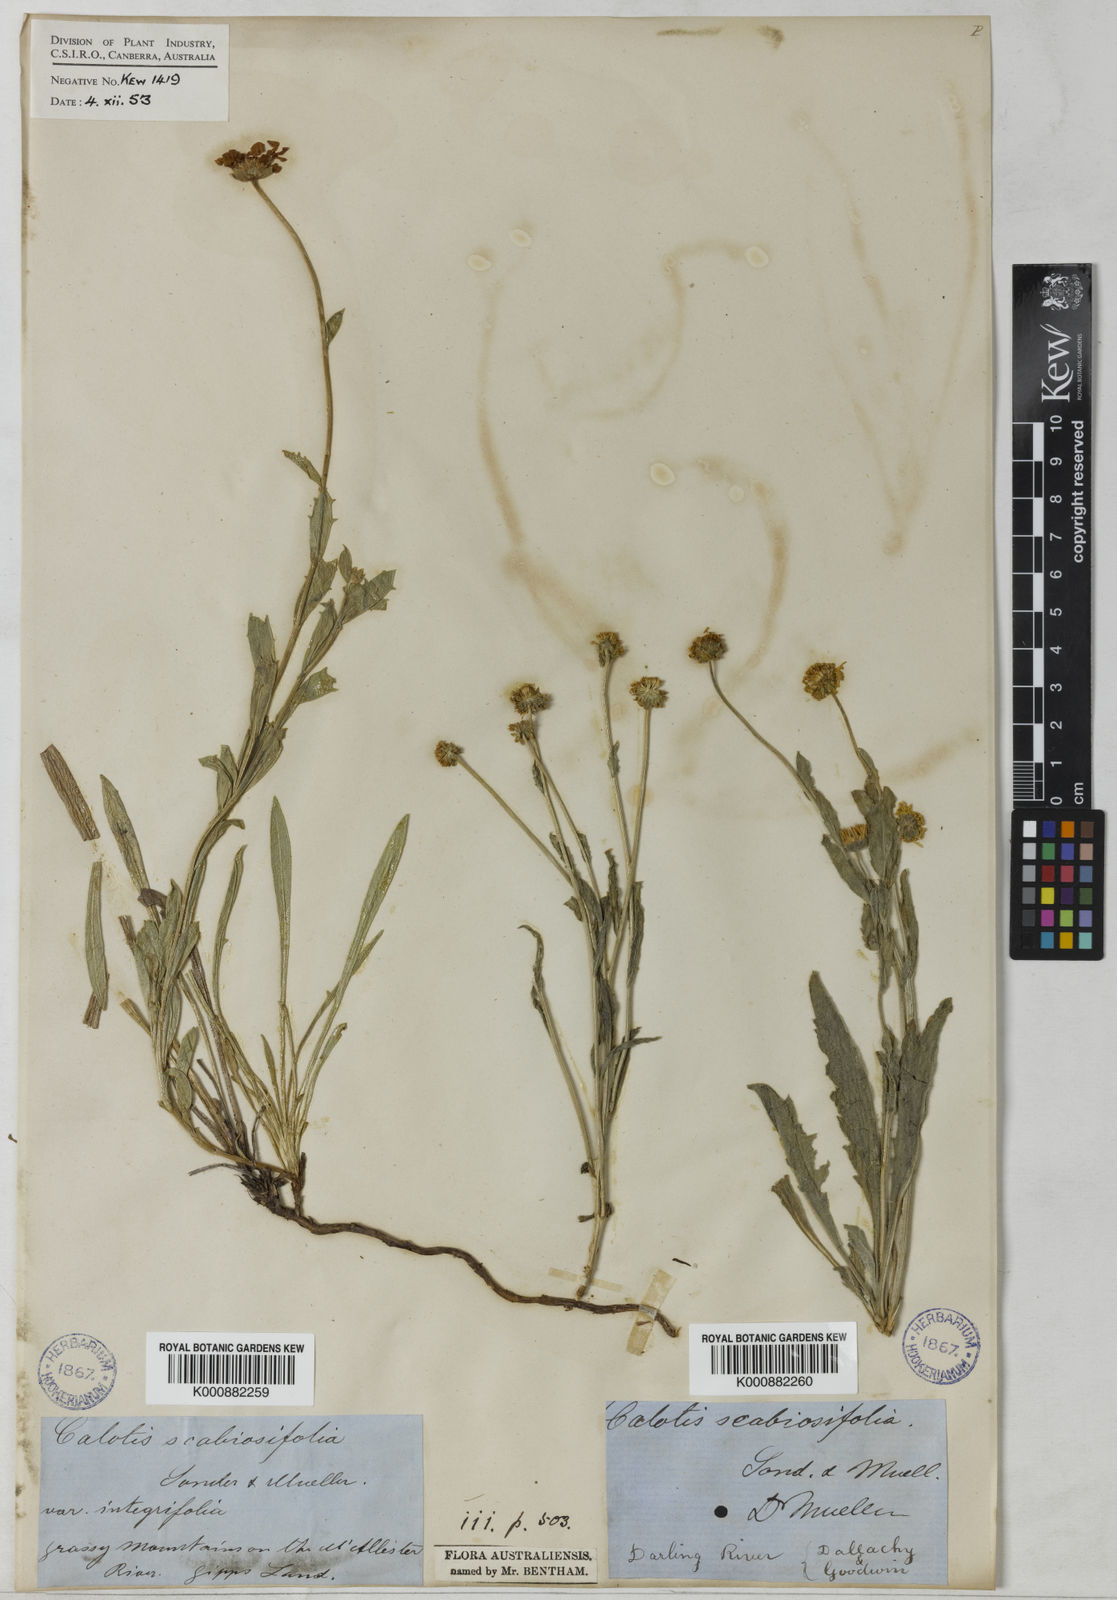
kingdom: Plantae
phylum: Tracheophyta
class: Magnoliopsida
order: Asterales
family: Asteraceae
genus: Calotis
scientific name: Calotis scabiosifolia
